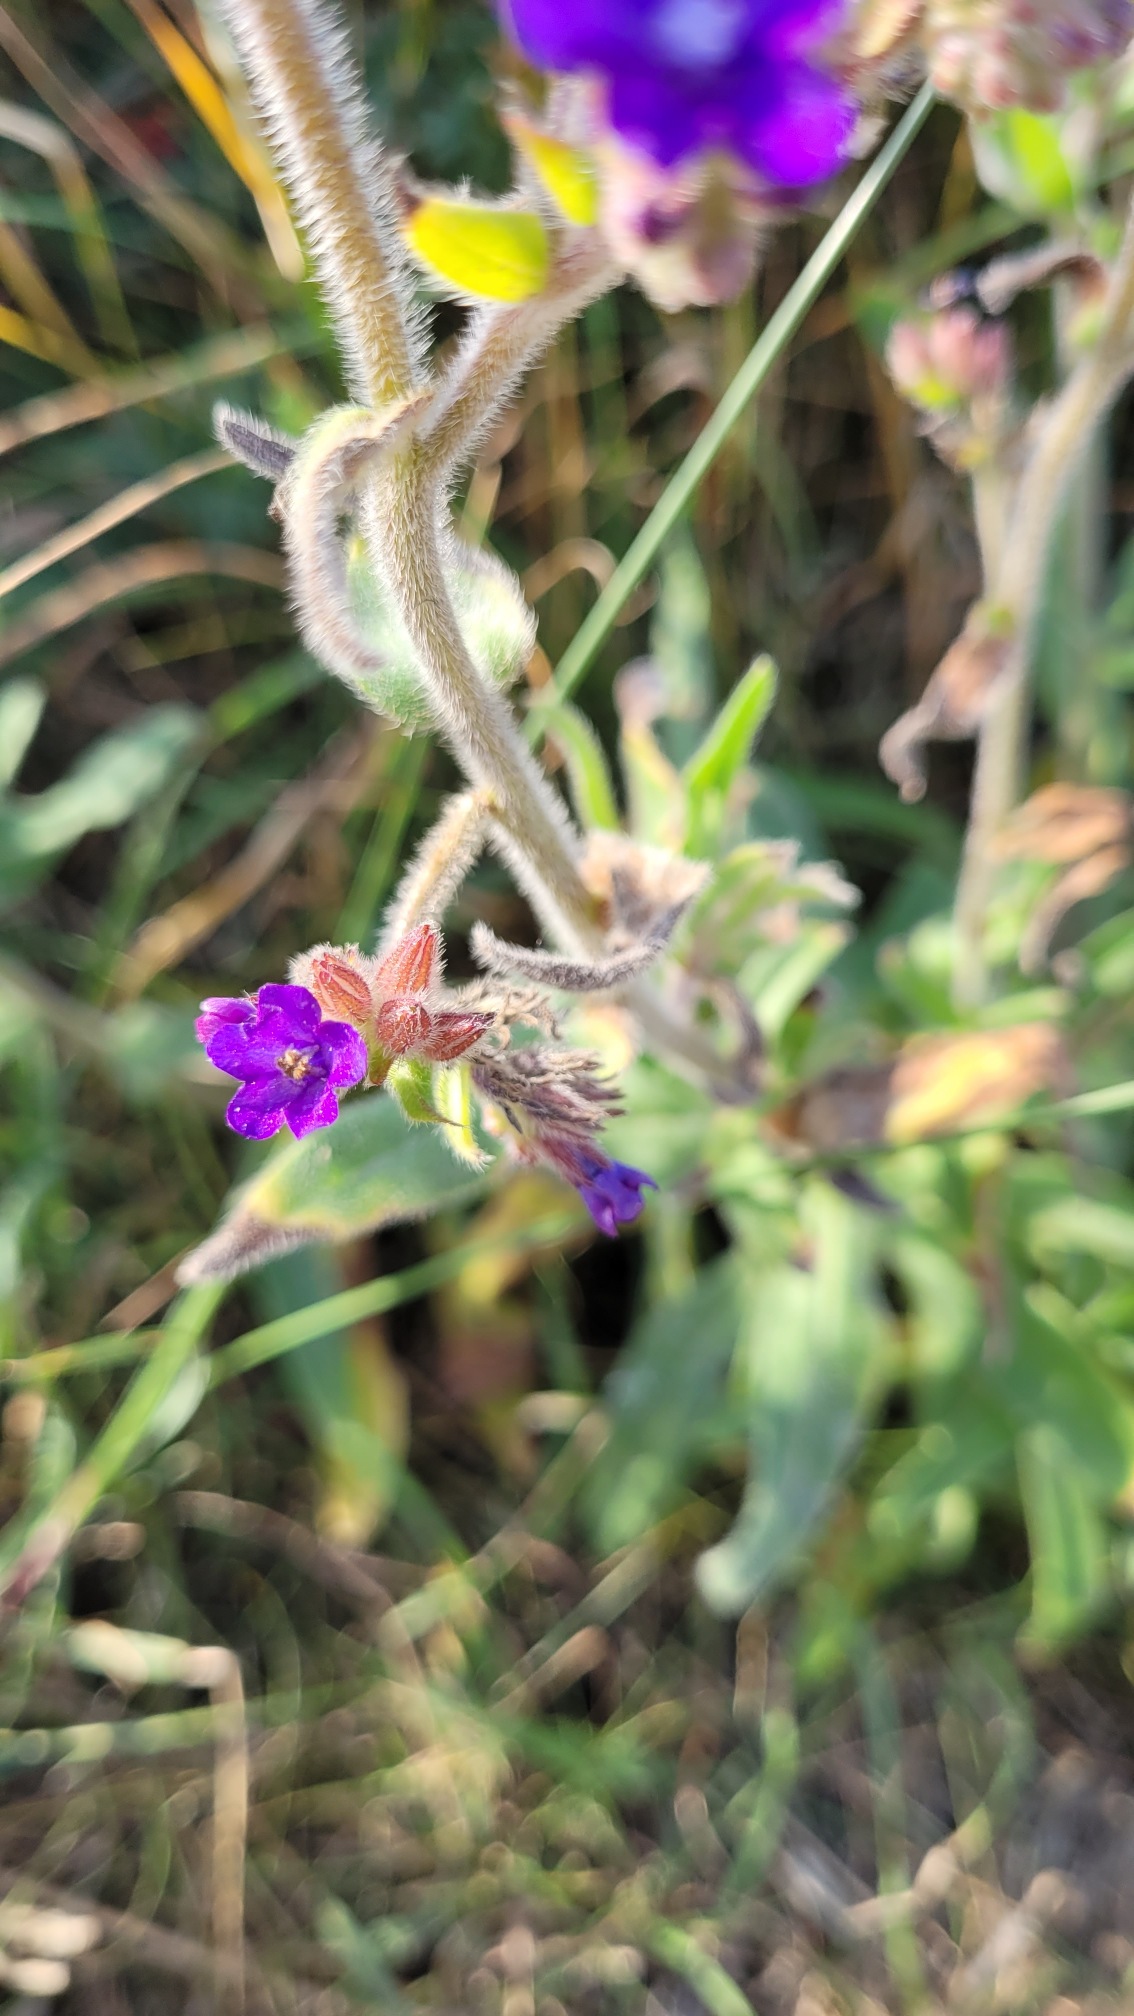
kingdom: Plantae
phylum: Tracheophyta
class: Magnoliopsida
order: Boraginales
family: Boraginaceae
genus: Anchusa
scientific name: Anchusa officinalis
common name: Læge-oksetunge
